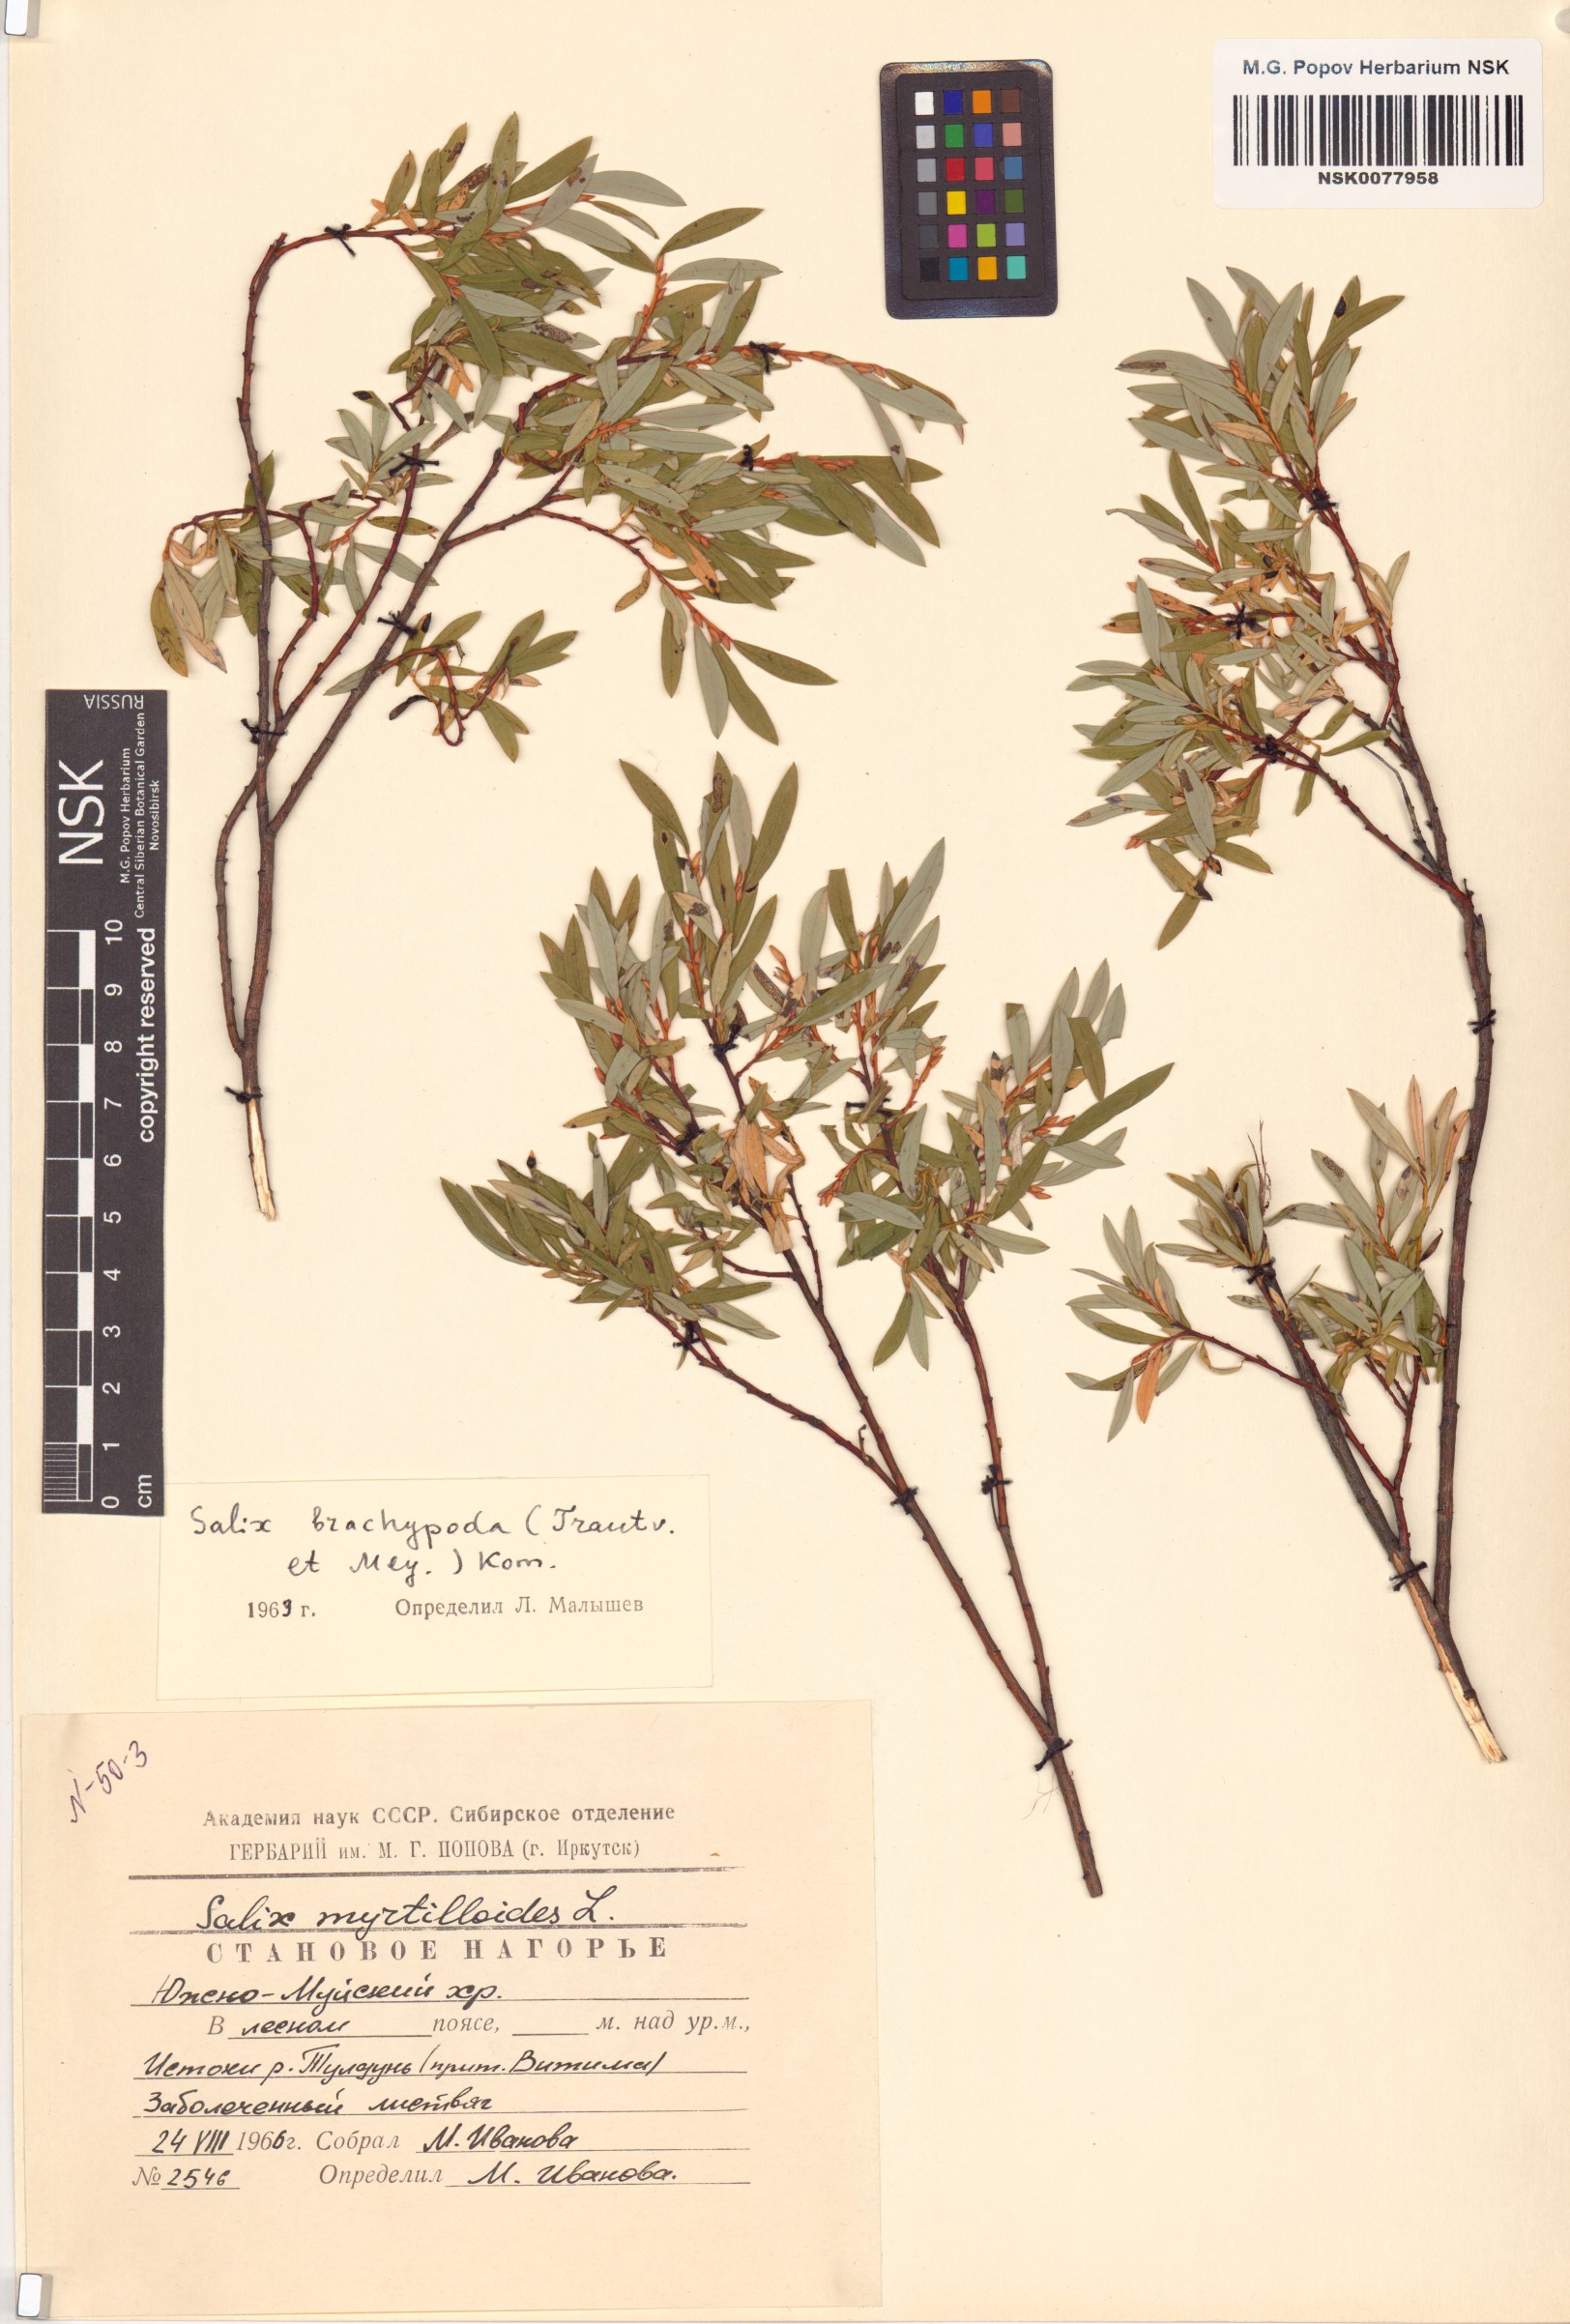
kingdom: Plantae
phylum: Tracheophyta
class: Magnoliopsida
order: Malpighiales
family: Salicaceae
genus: Salix
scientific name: Salix brachypoda
